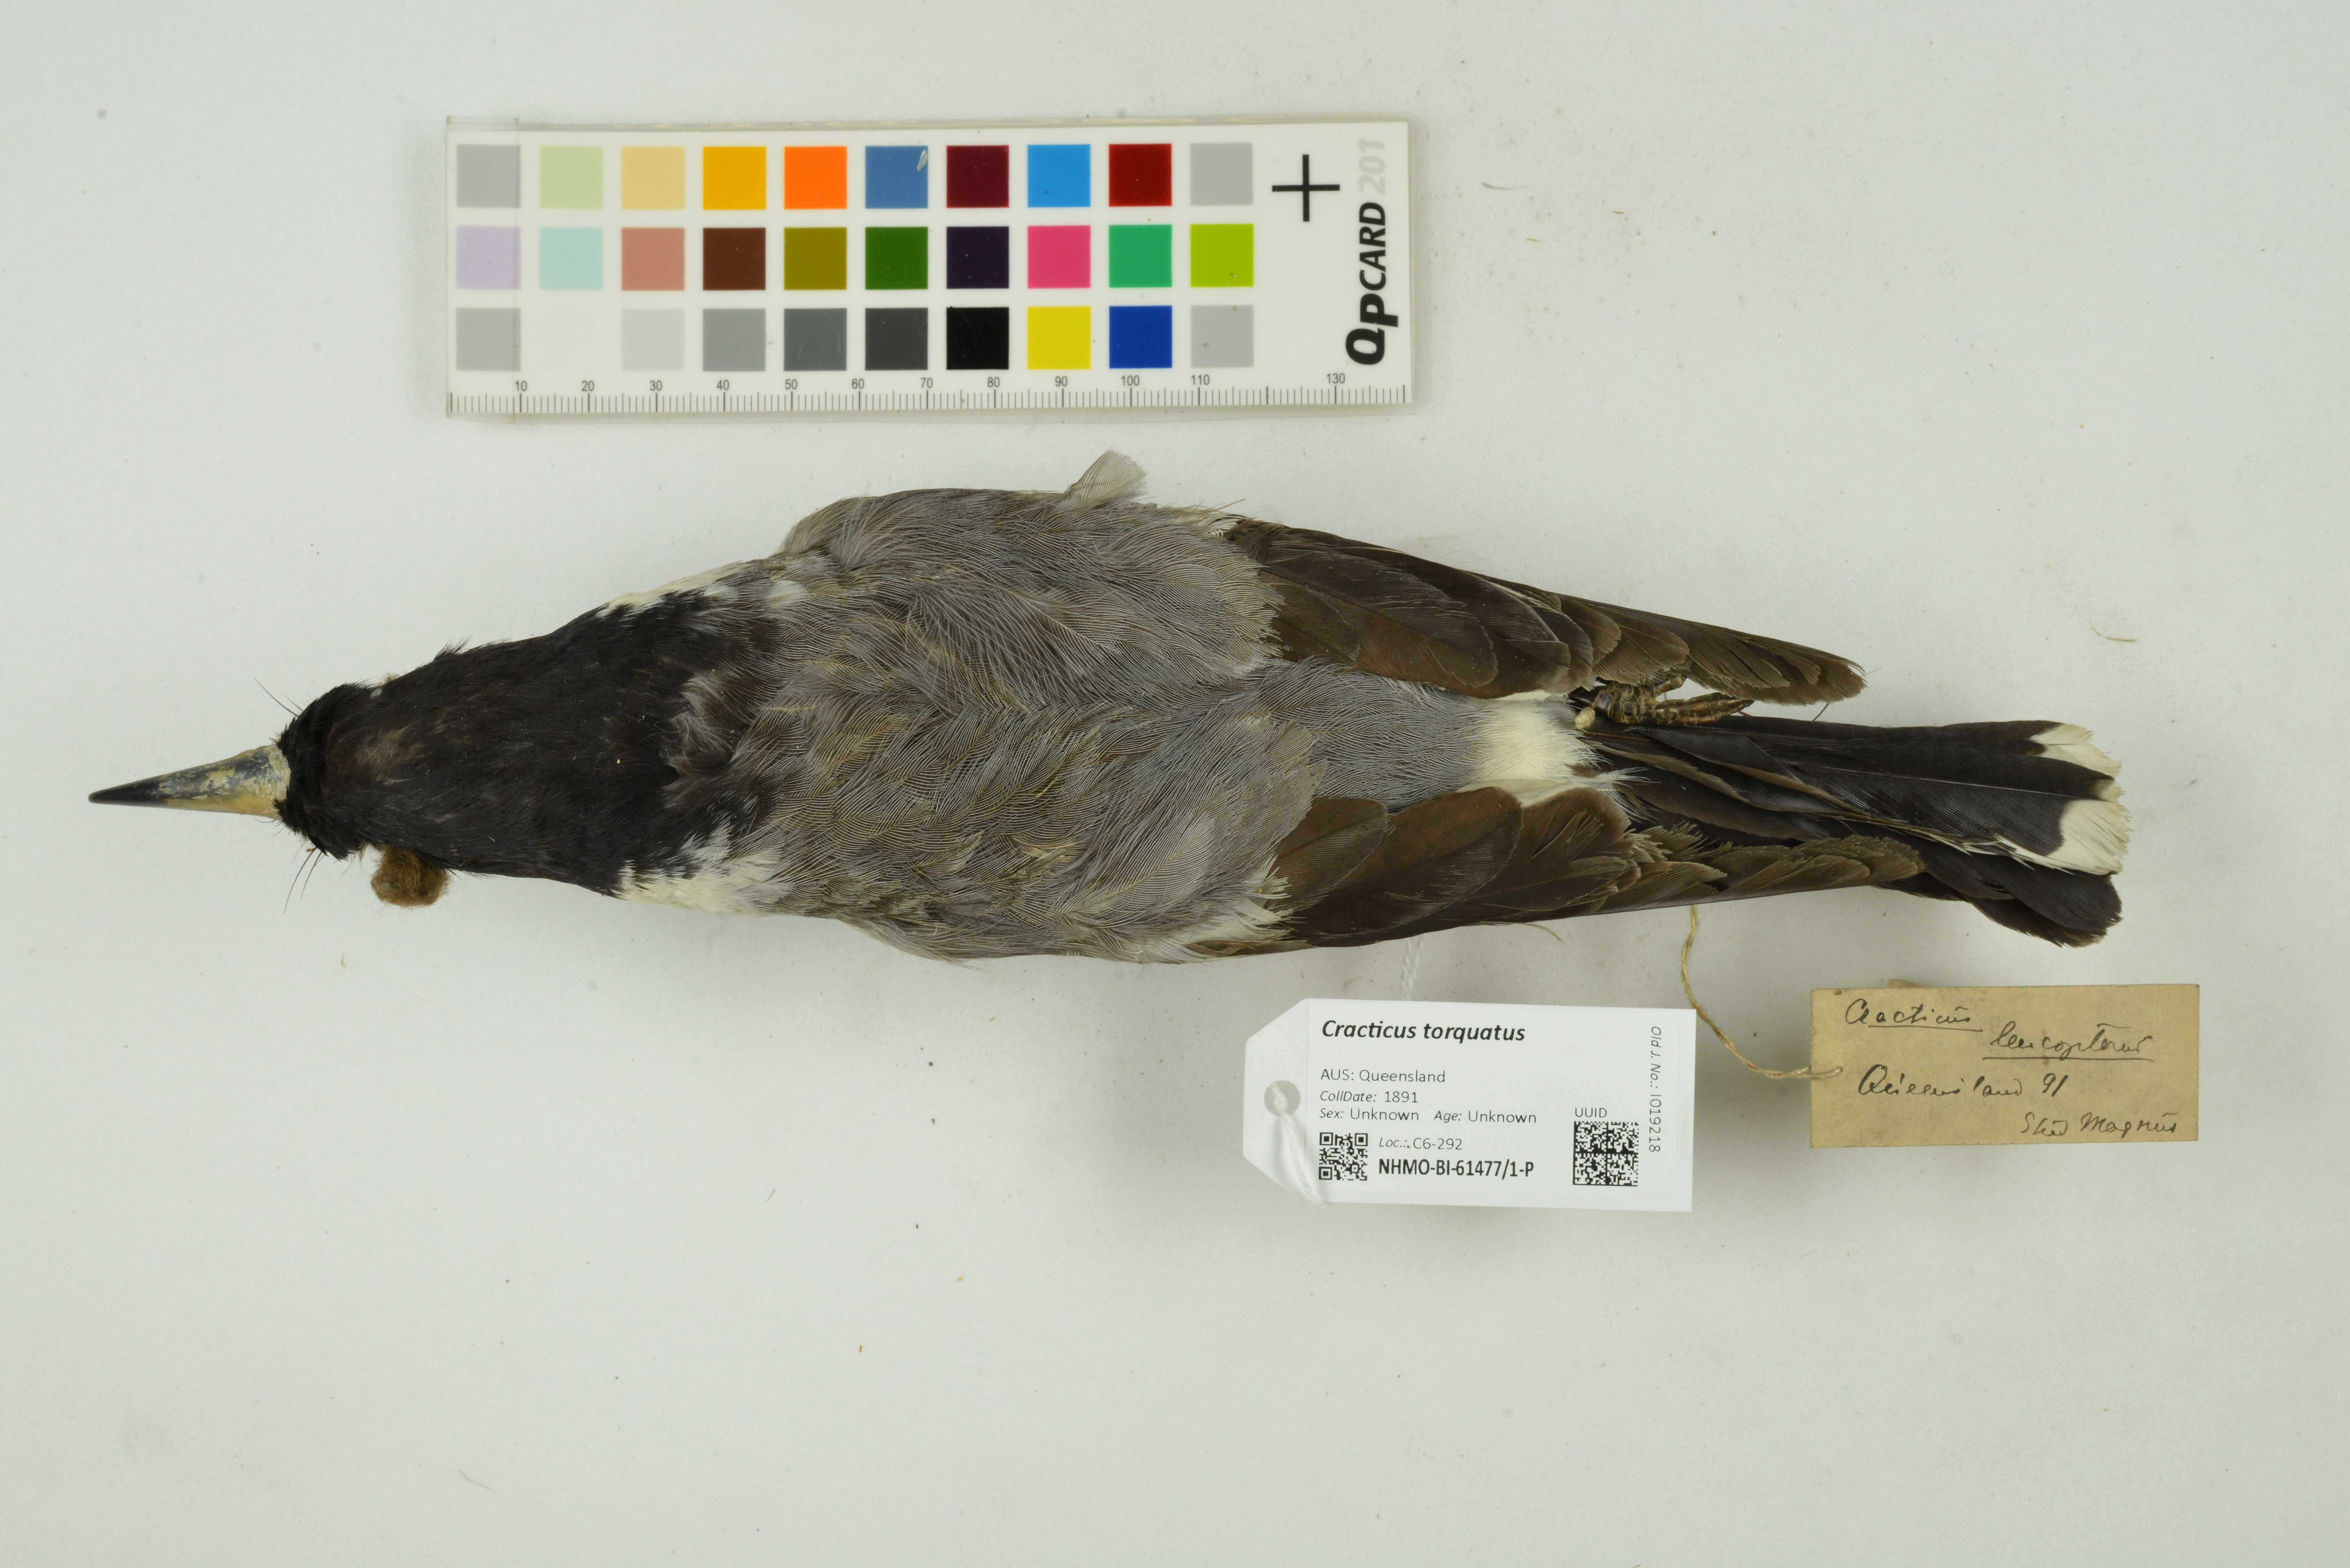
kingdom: Animalia
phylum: Chordata
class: Aves
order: Passeriformes
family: Cracticidae
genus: Cracticus
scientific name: Cracticus torquatus
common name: Grey butcherbird
